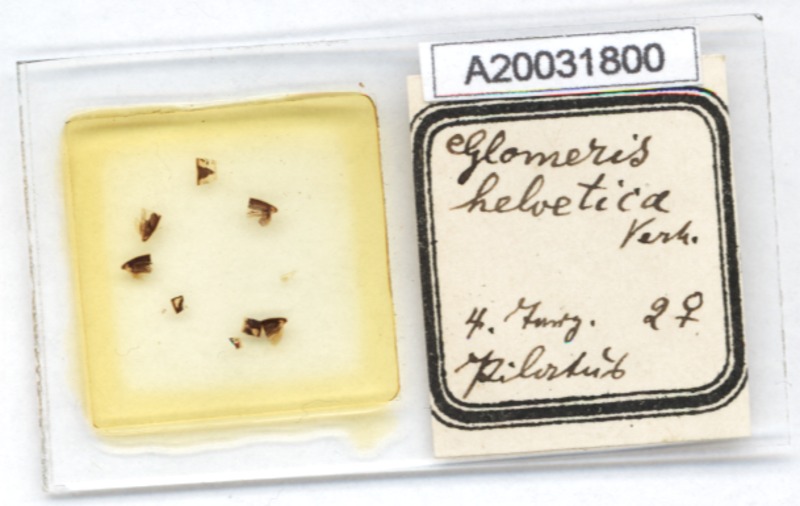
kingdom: Animalia
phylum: Arthropoda
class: Diplopoda
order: Glomerida
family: Glomeridae
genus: Glomeris
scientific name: Glomeris helvetica
